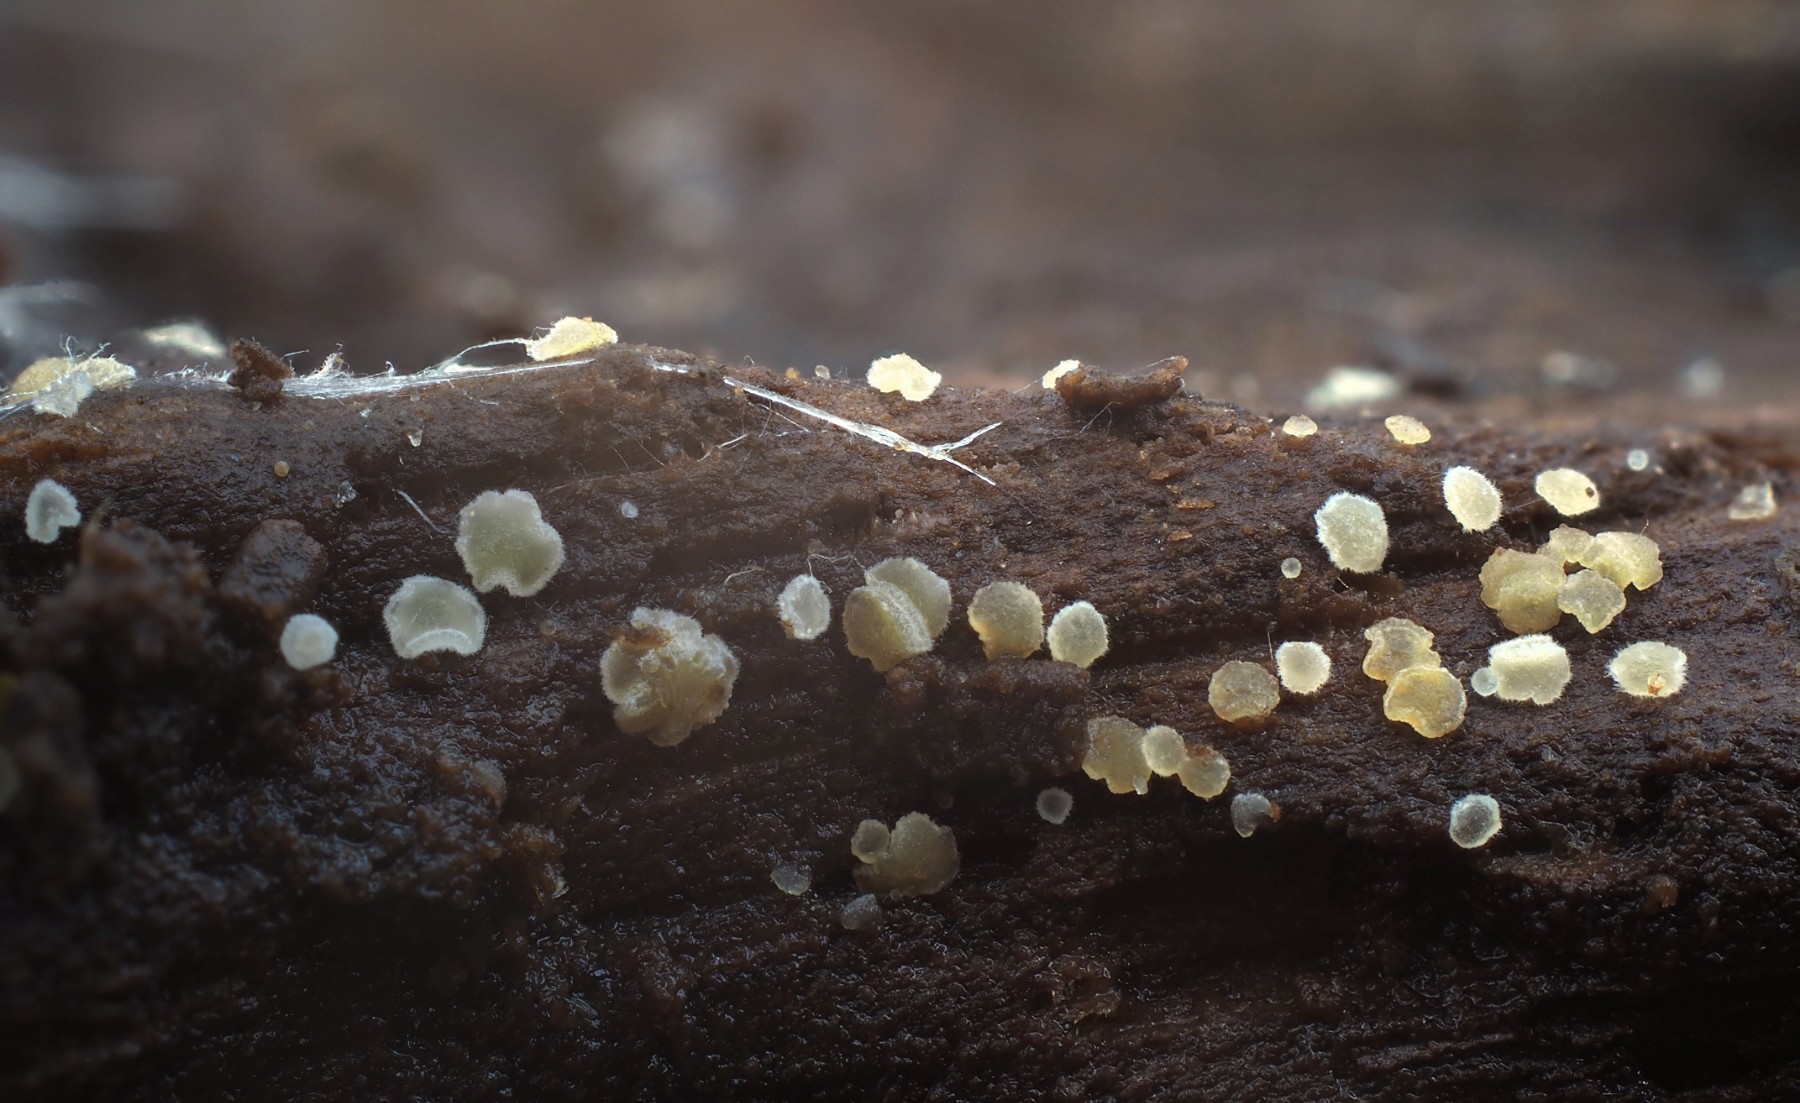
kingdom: Fungi
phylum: Ascomycota
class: Leotiomycetes
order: Helotiales
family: Hyaloscyphaceae
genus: Hyaloscypha
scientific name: Hyaloscypha daedaleae
